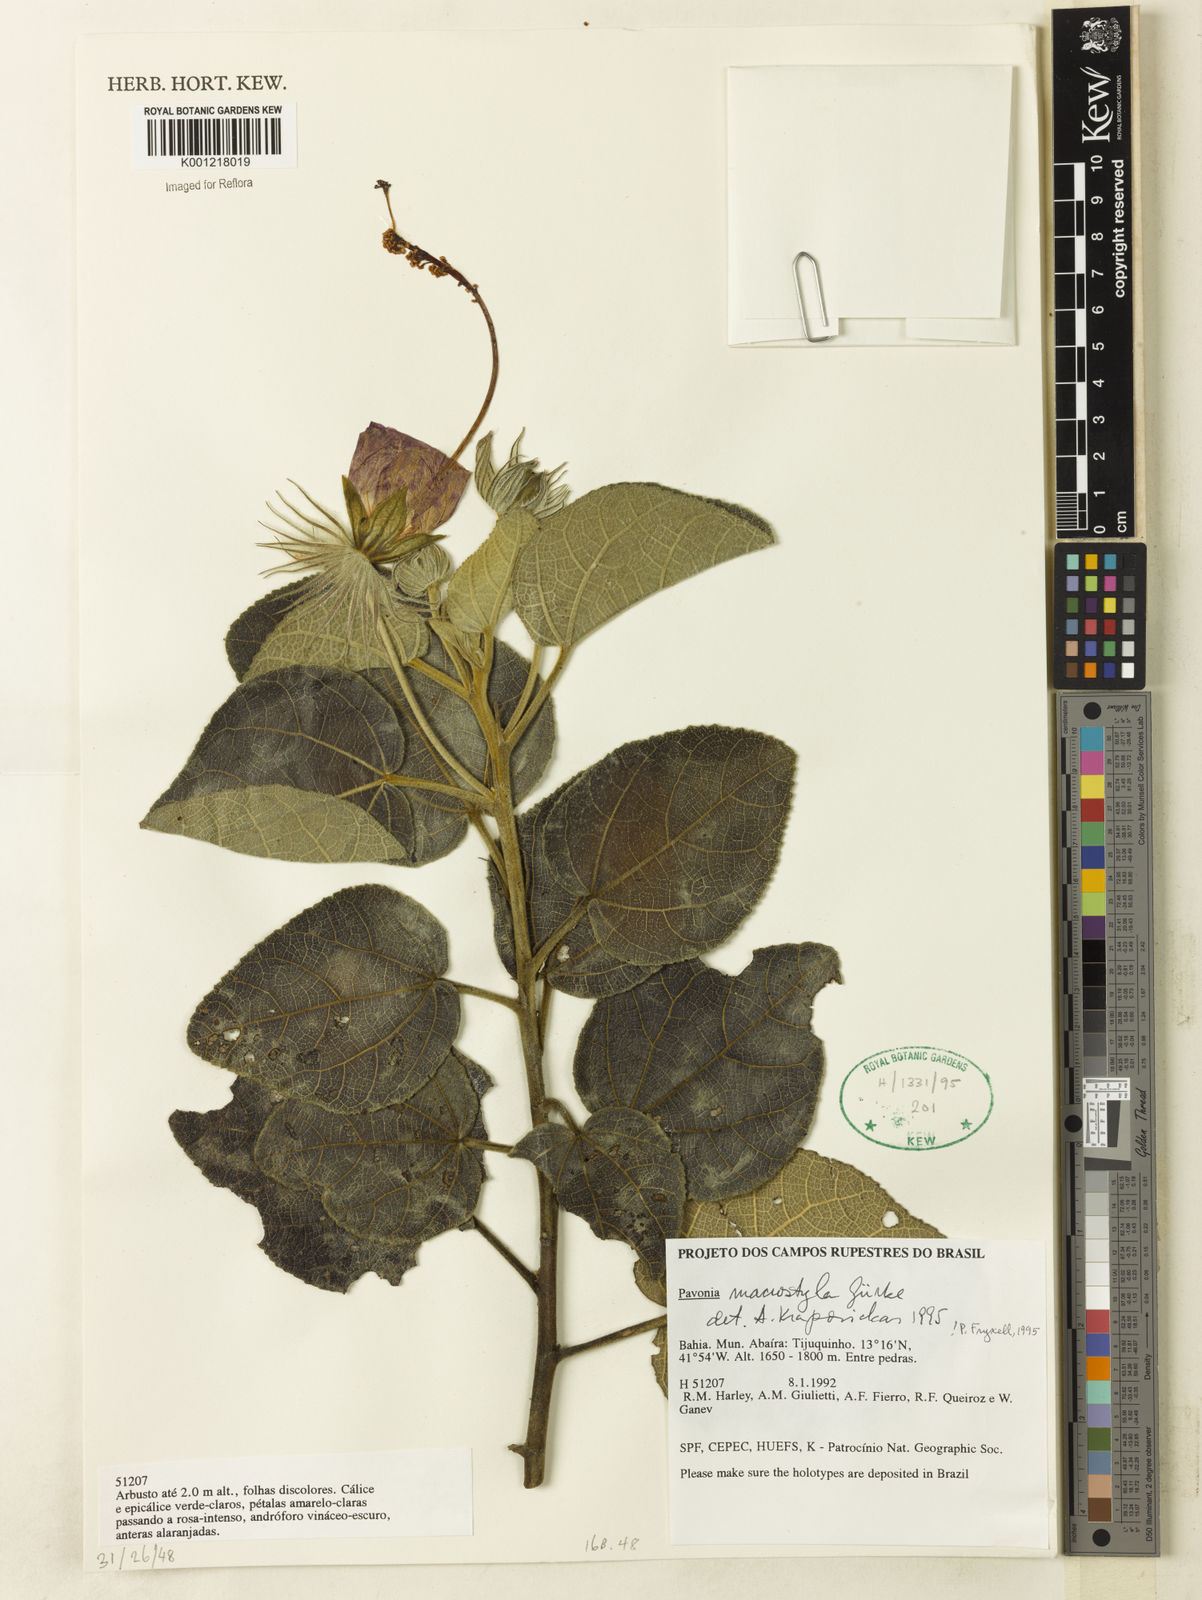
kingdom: Plantae
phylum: Tracheophyta
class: Magnoliopsida
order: Malvales
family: Malvaceae
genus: Pavonia
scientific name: Pavonia
